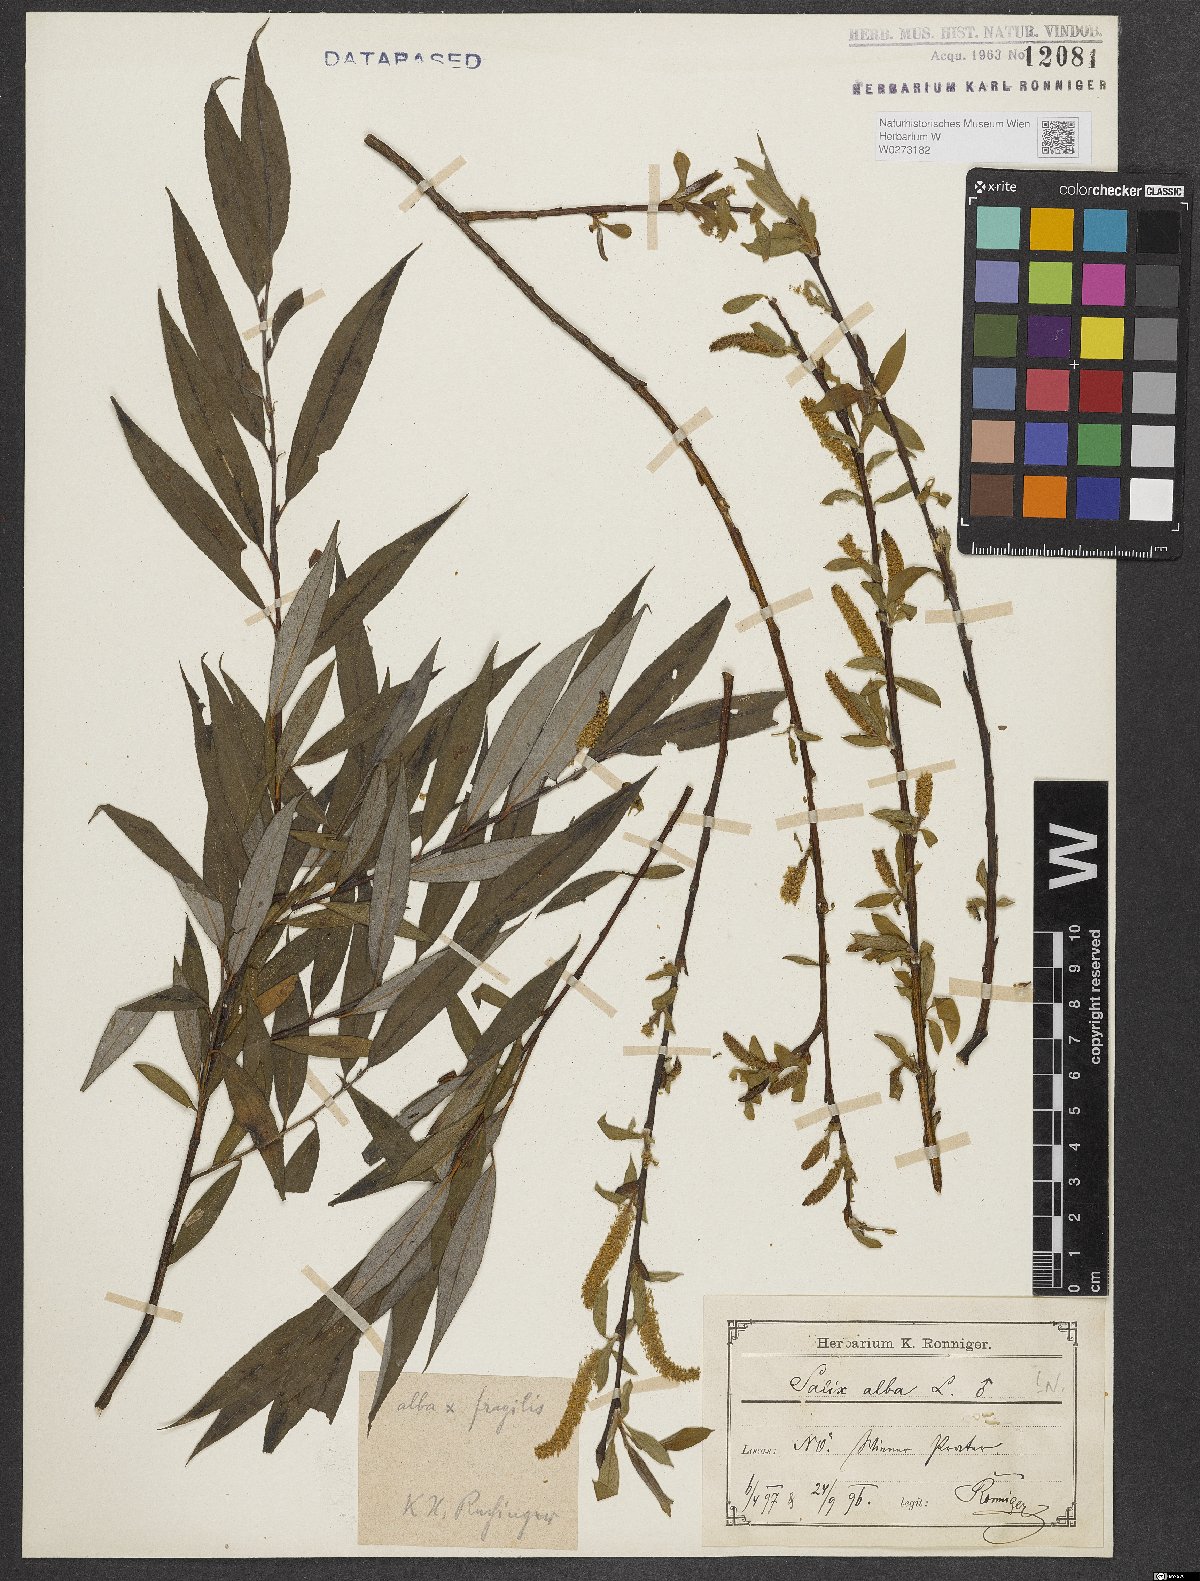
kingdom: Plantae
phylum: Tracheophyta
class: Magnoliopsida
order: Malpighiales
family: Salicaceae
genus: Salix
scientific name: Salix alba
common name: White willow
